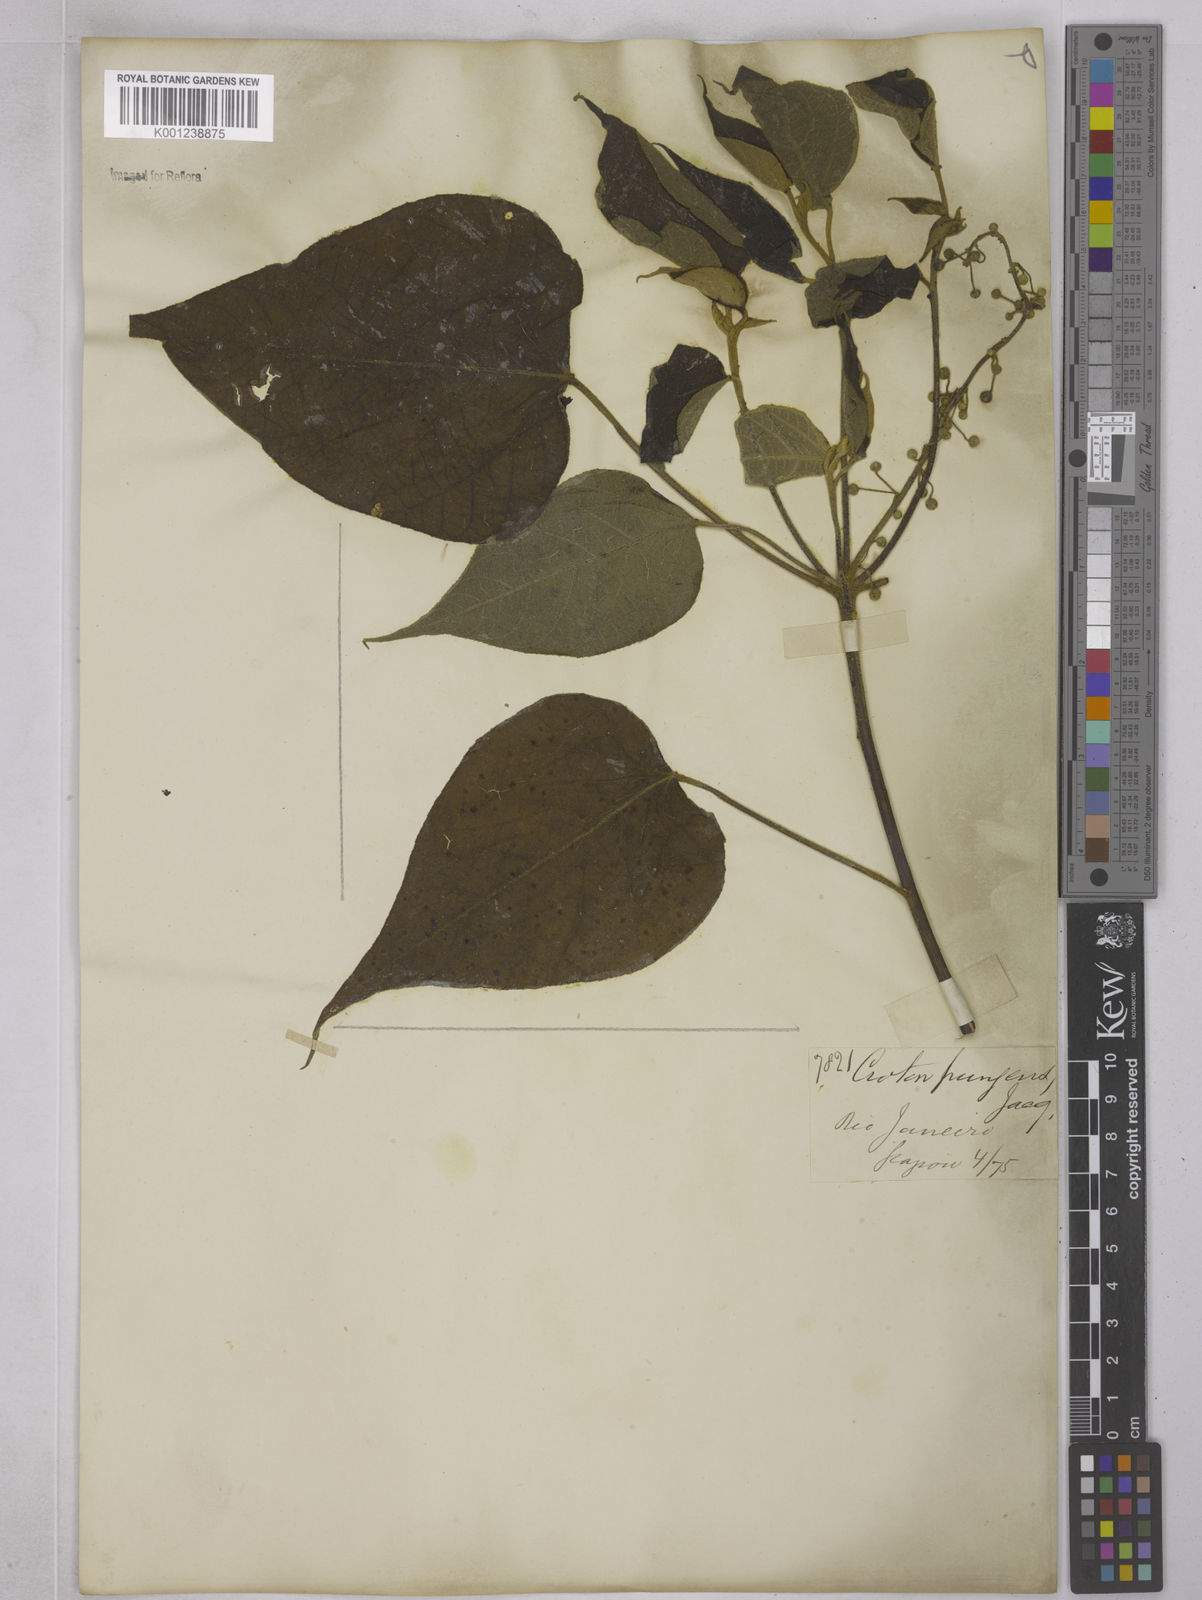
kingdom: Plantae
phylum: Tracheophyta
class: Magnoliopsida
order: Malpighiales
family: Euphorbiaceae
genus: Croton
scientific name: Croton celtidifolius
